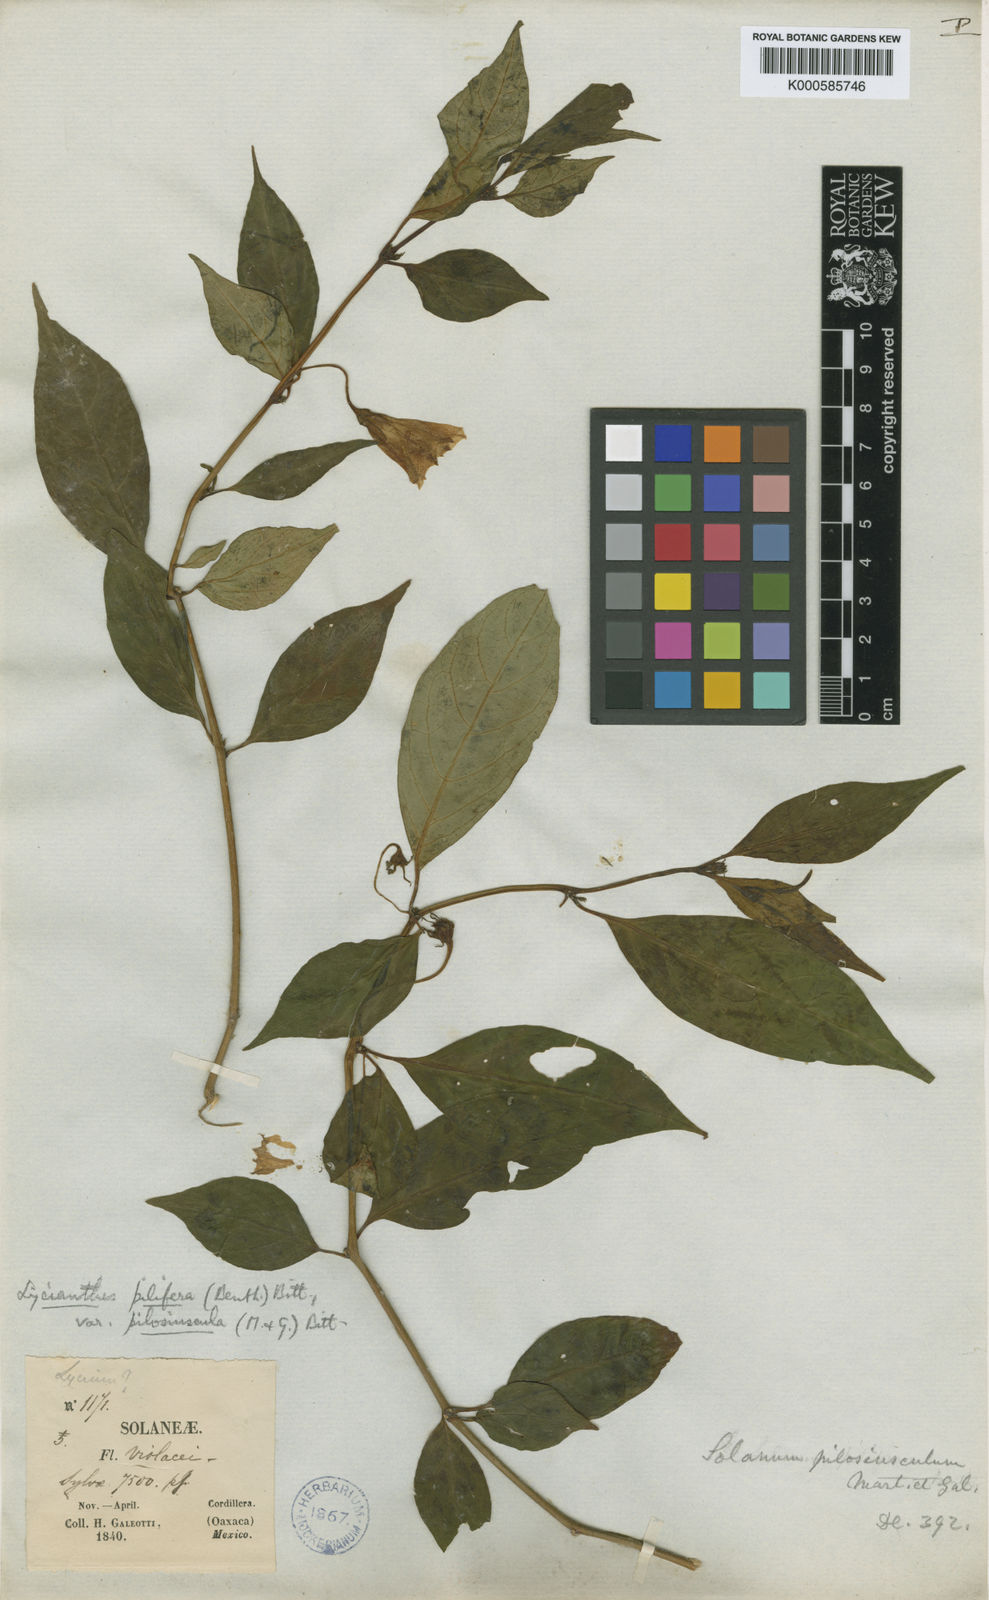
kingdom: Plantae
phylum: Tracheophyta
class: Magnoliopsida
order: Solanales
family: Solanaceae
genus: Lycianthes
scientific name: Lycianthes pilifera
